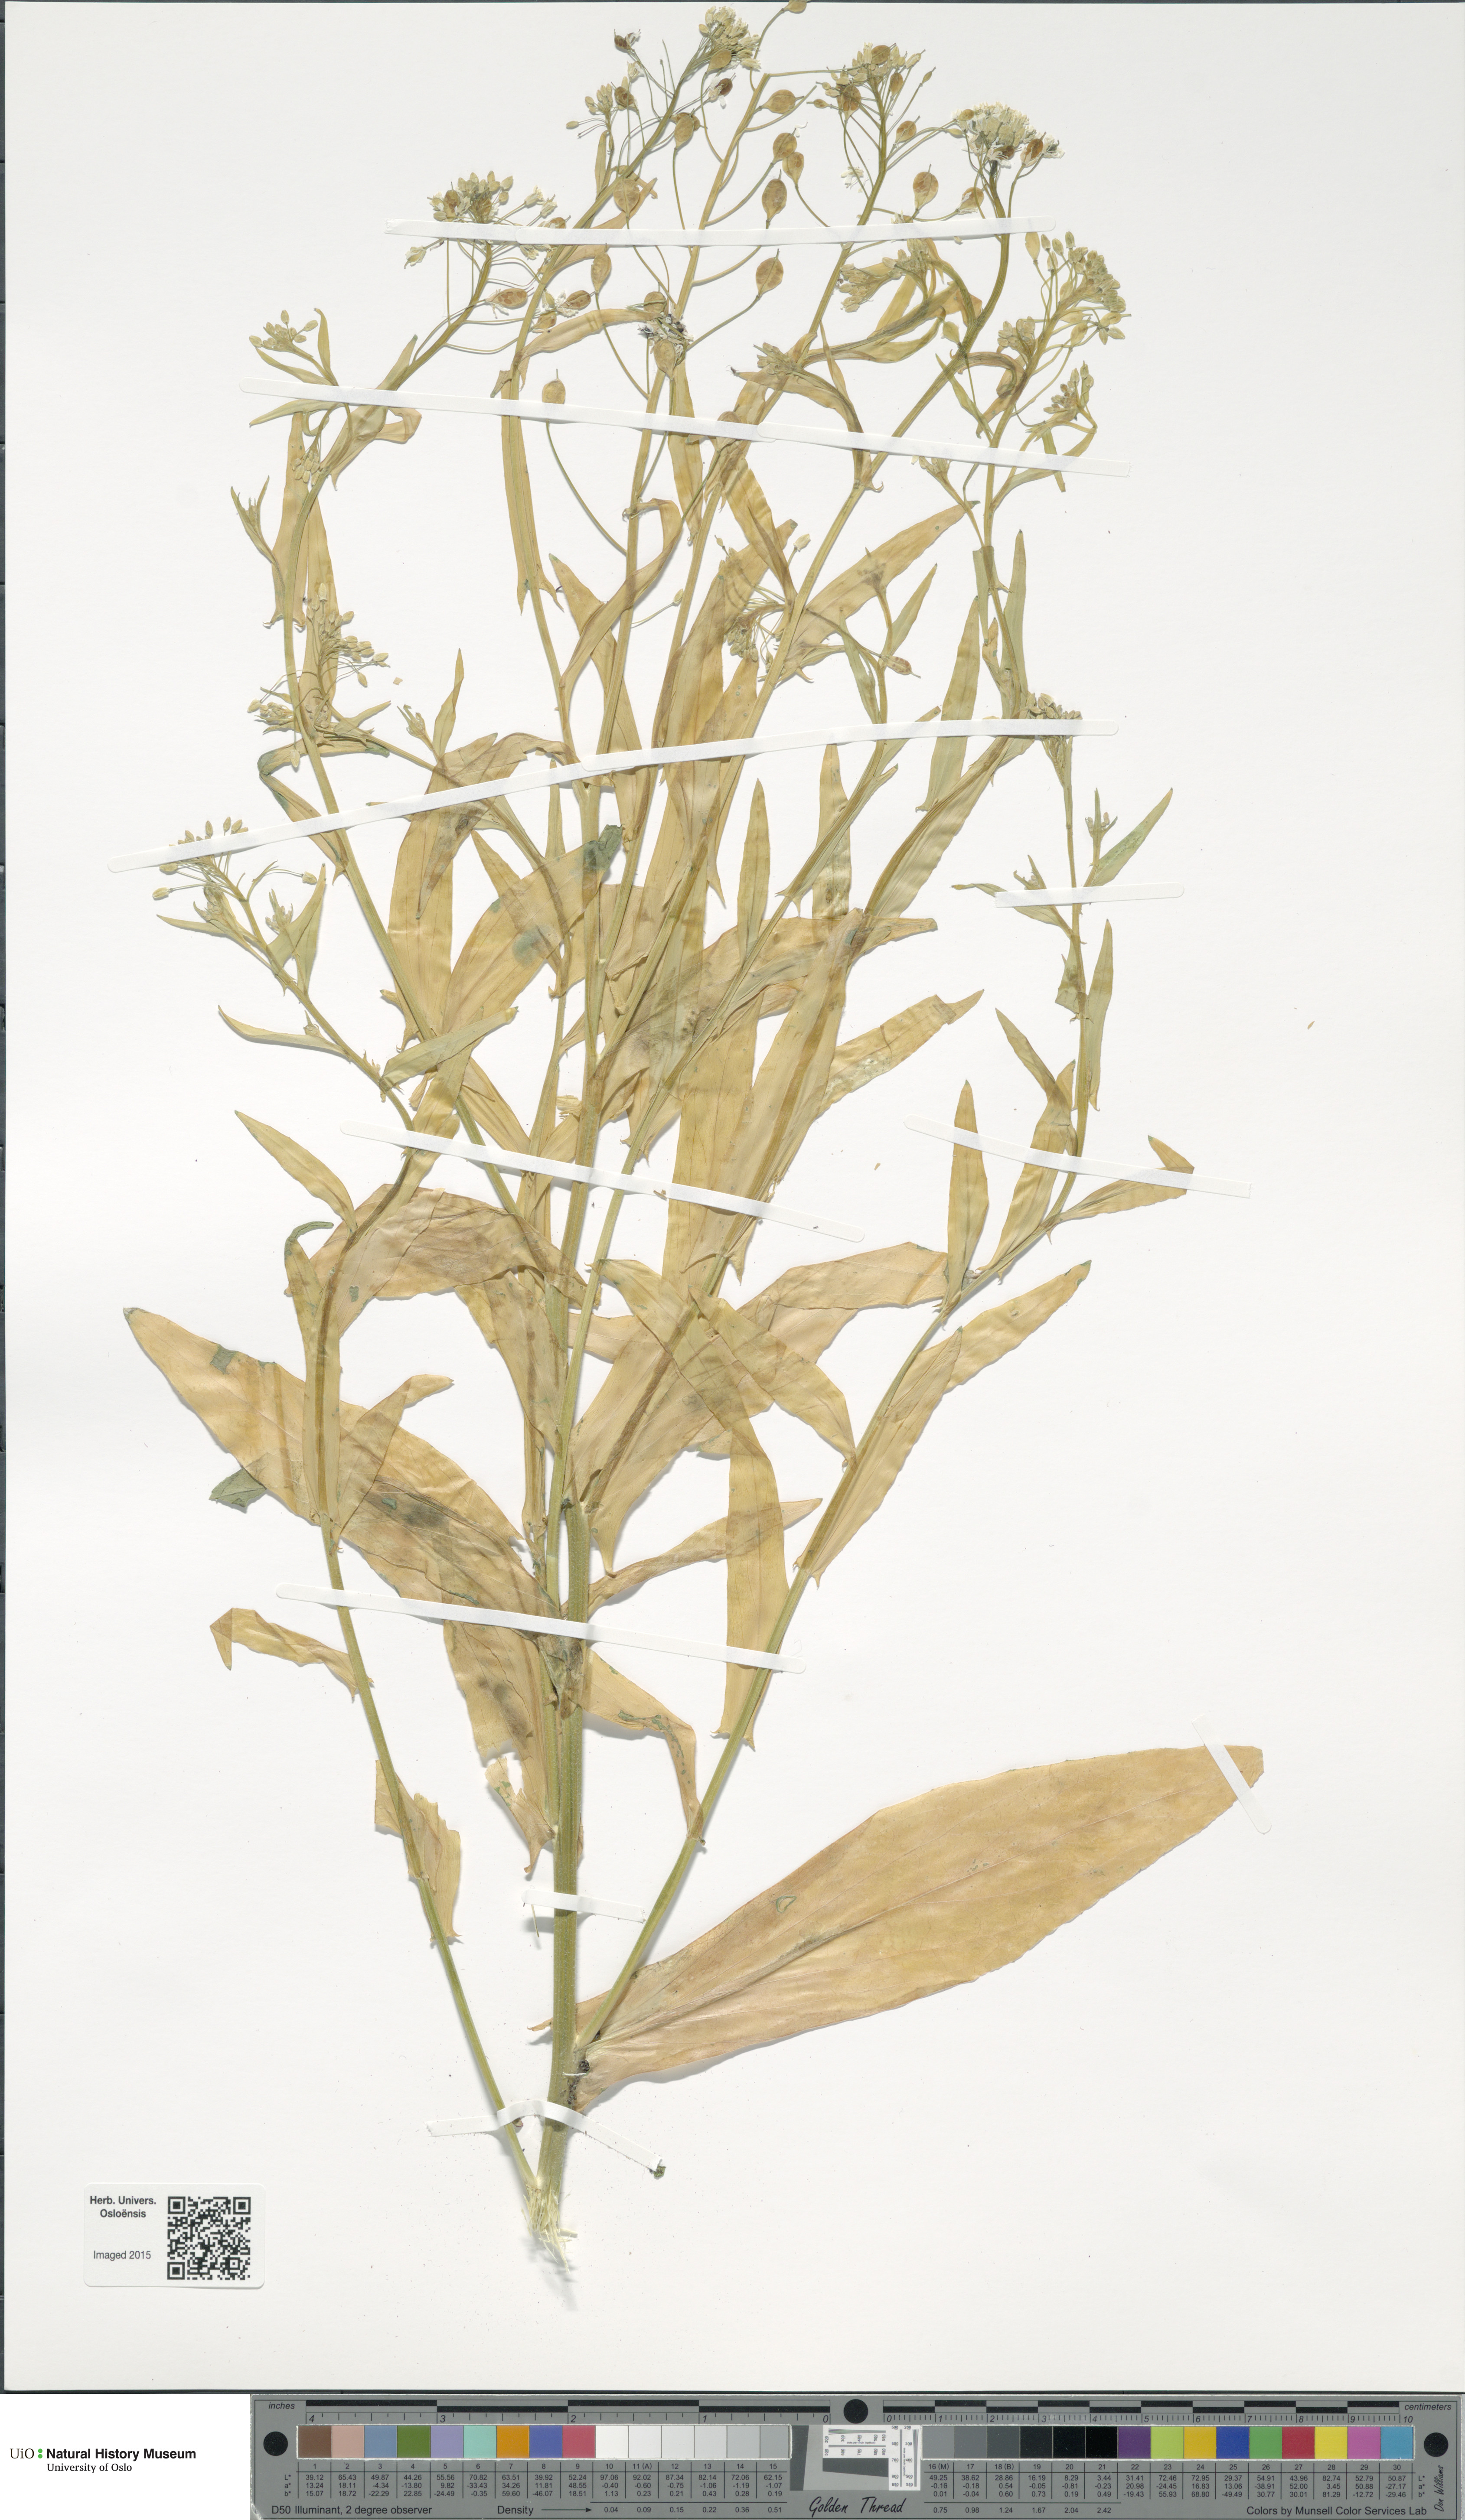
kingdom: Plantae
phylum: Tracheophyta
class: Magnoliopsida
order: Brassicales
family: Brassicaceae
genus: Camelina
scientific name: Camelina alyssum
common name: Gold-of-pleasure
